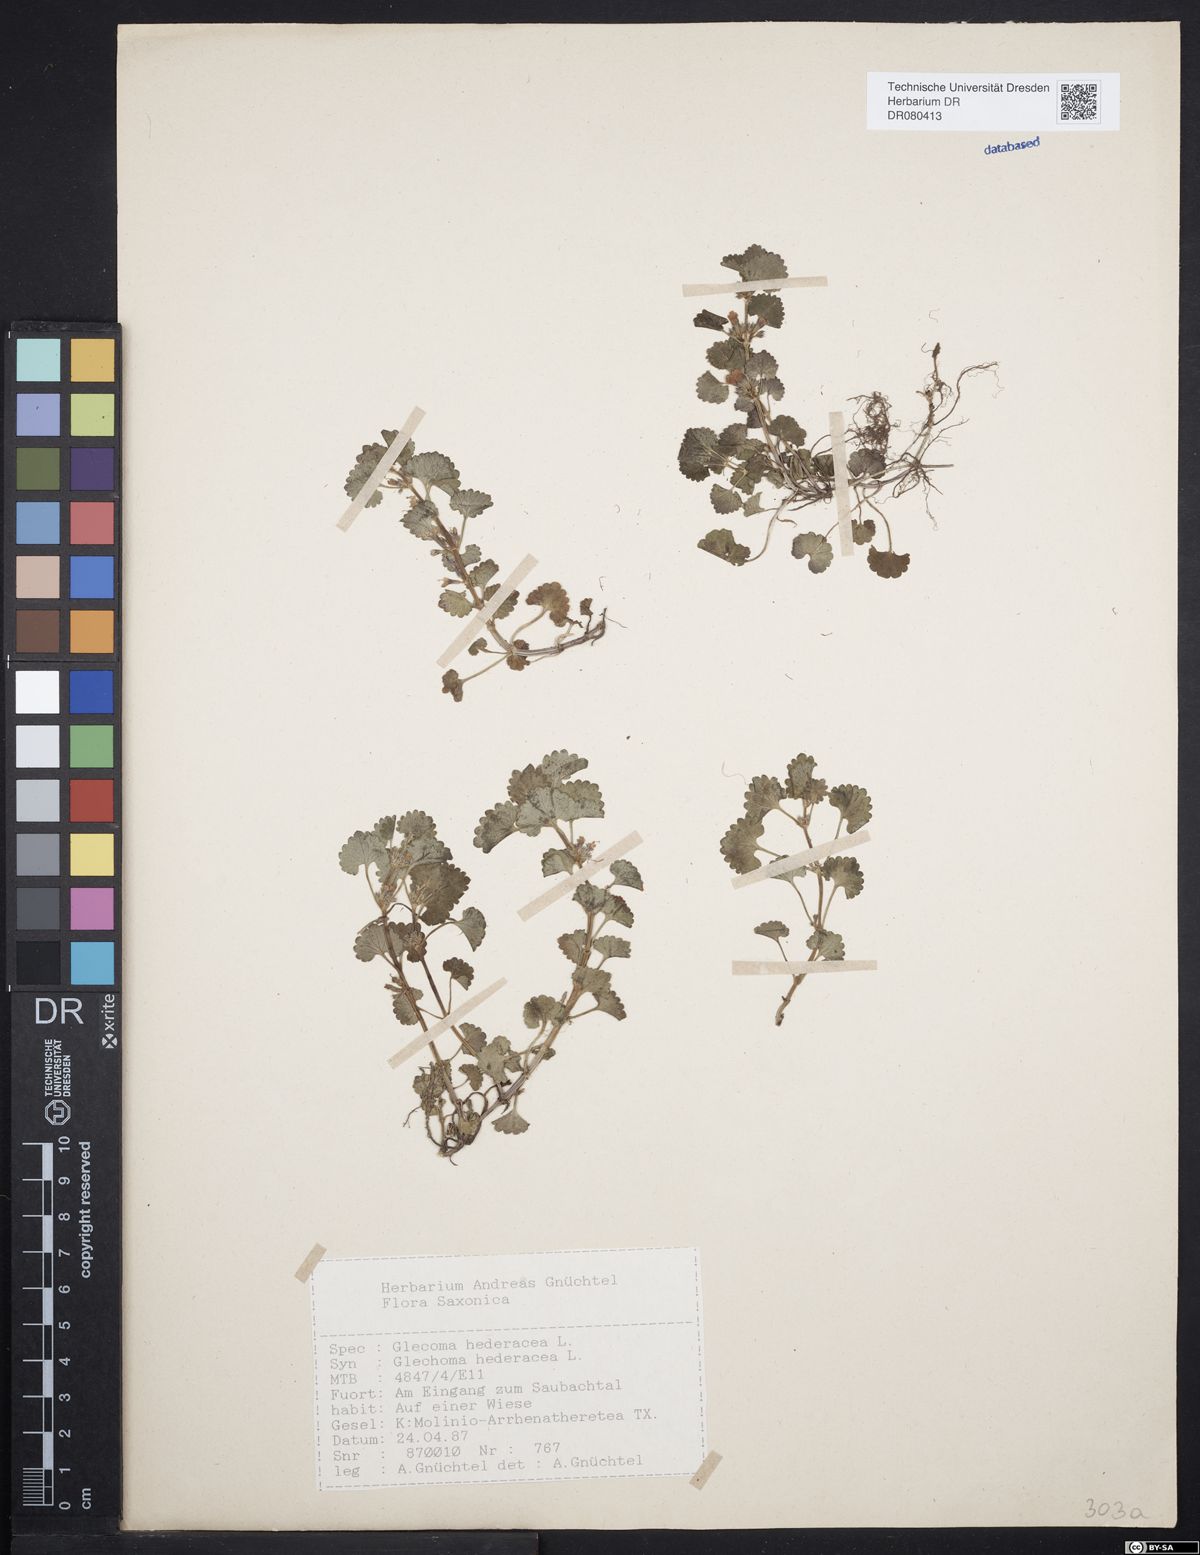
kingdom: Plantae
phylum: Tracheophyta
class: Magnoliopsida
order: Lamiales
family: Lamiaceae
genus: Glechoma
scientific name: Glechoma hederacea
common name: Ground ivy
